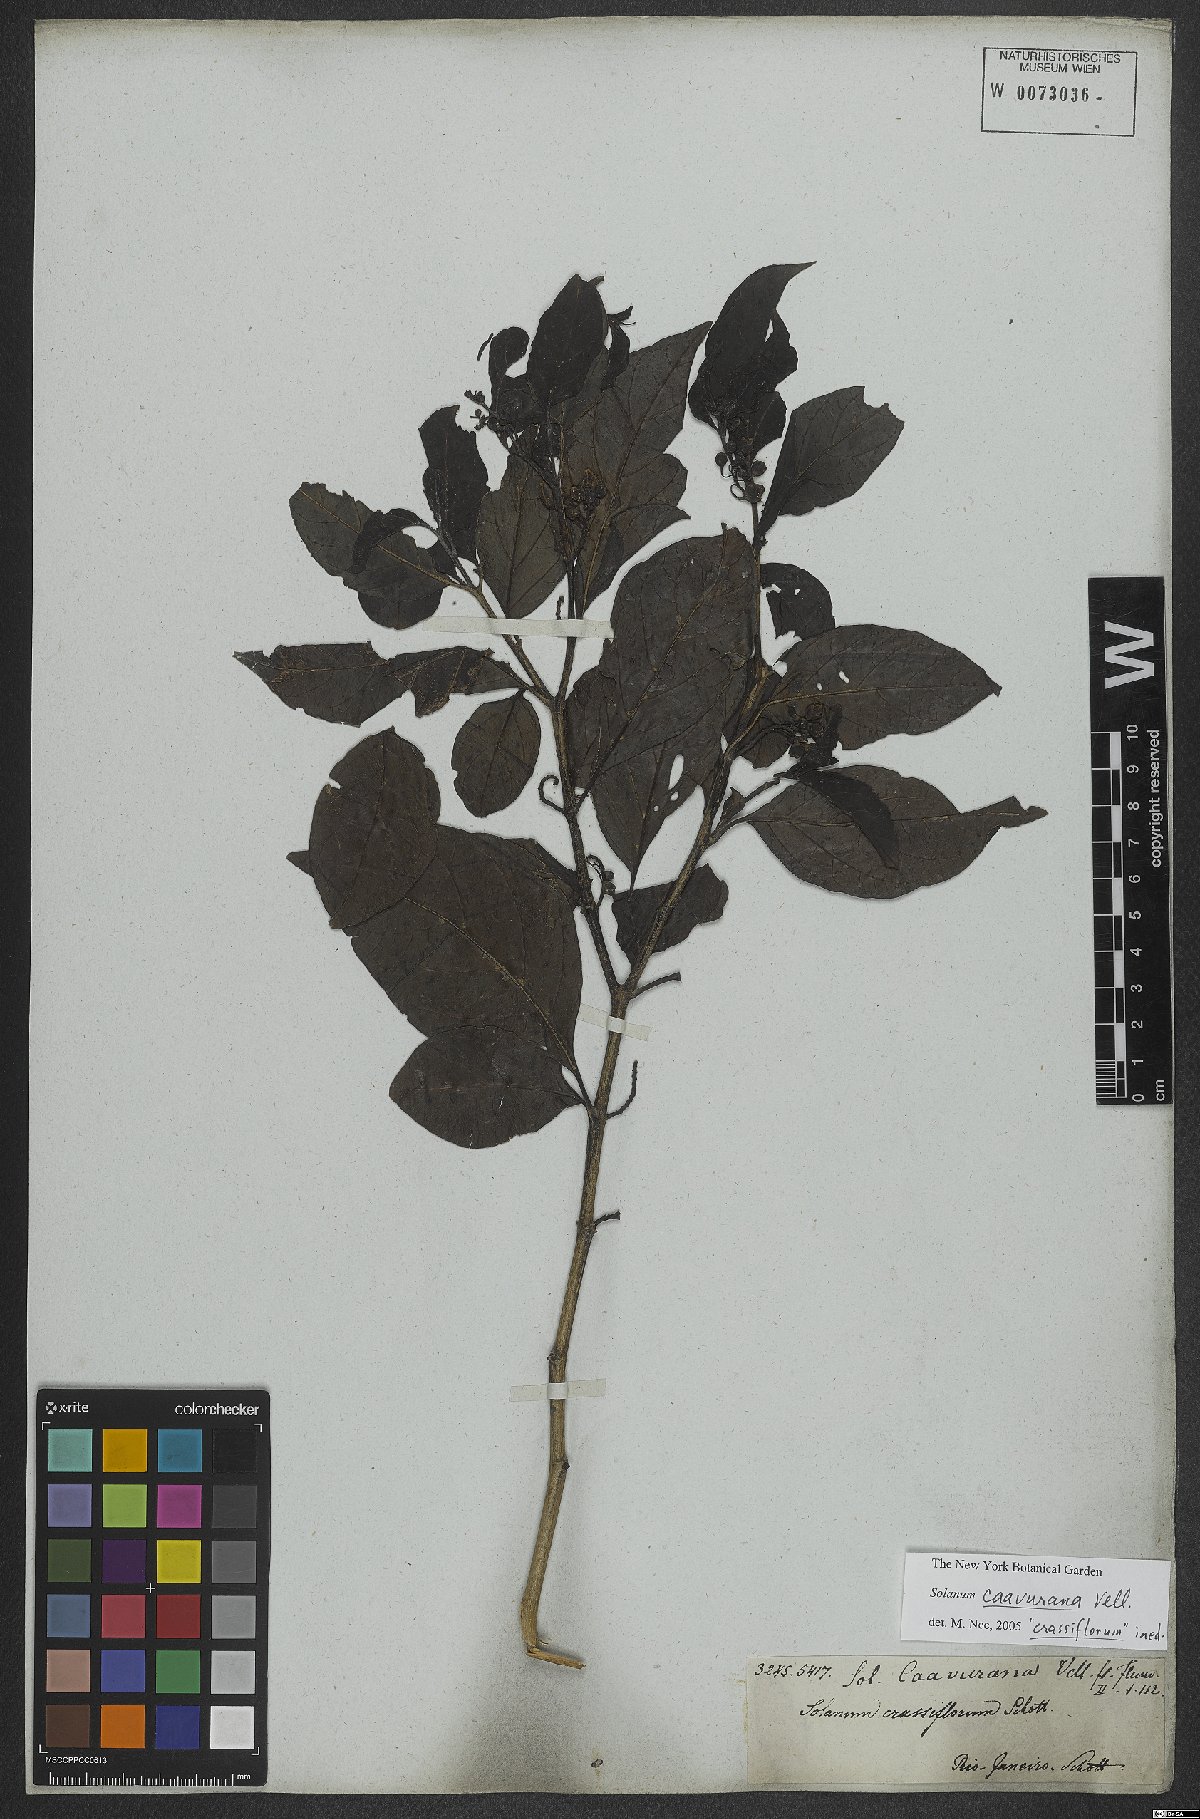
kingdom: Plantae
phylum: Tracheophyta
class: Magnoliopsida
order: Solanales
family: Solanaceae
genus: Solanum
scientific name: Solanum caavurana
